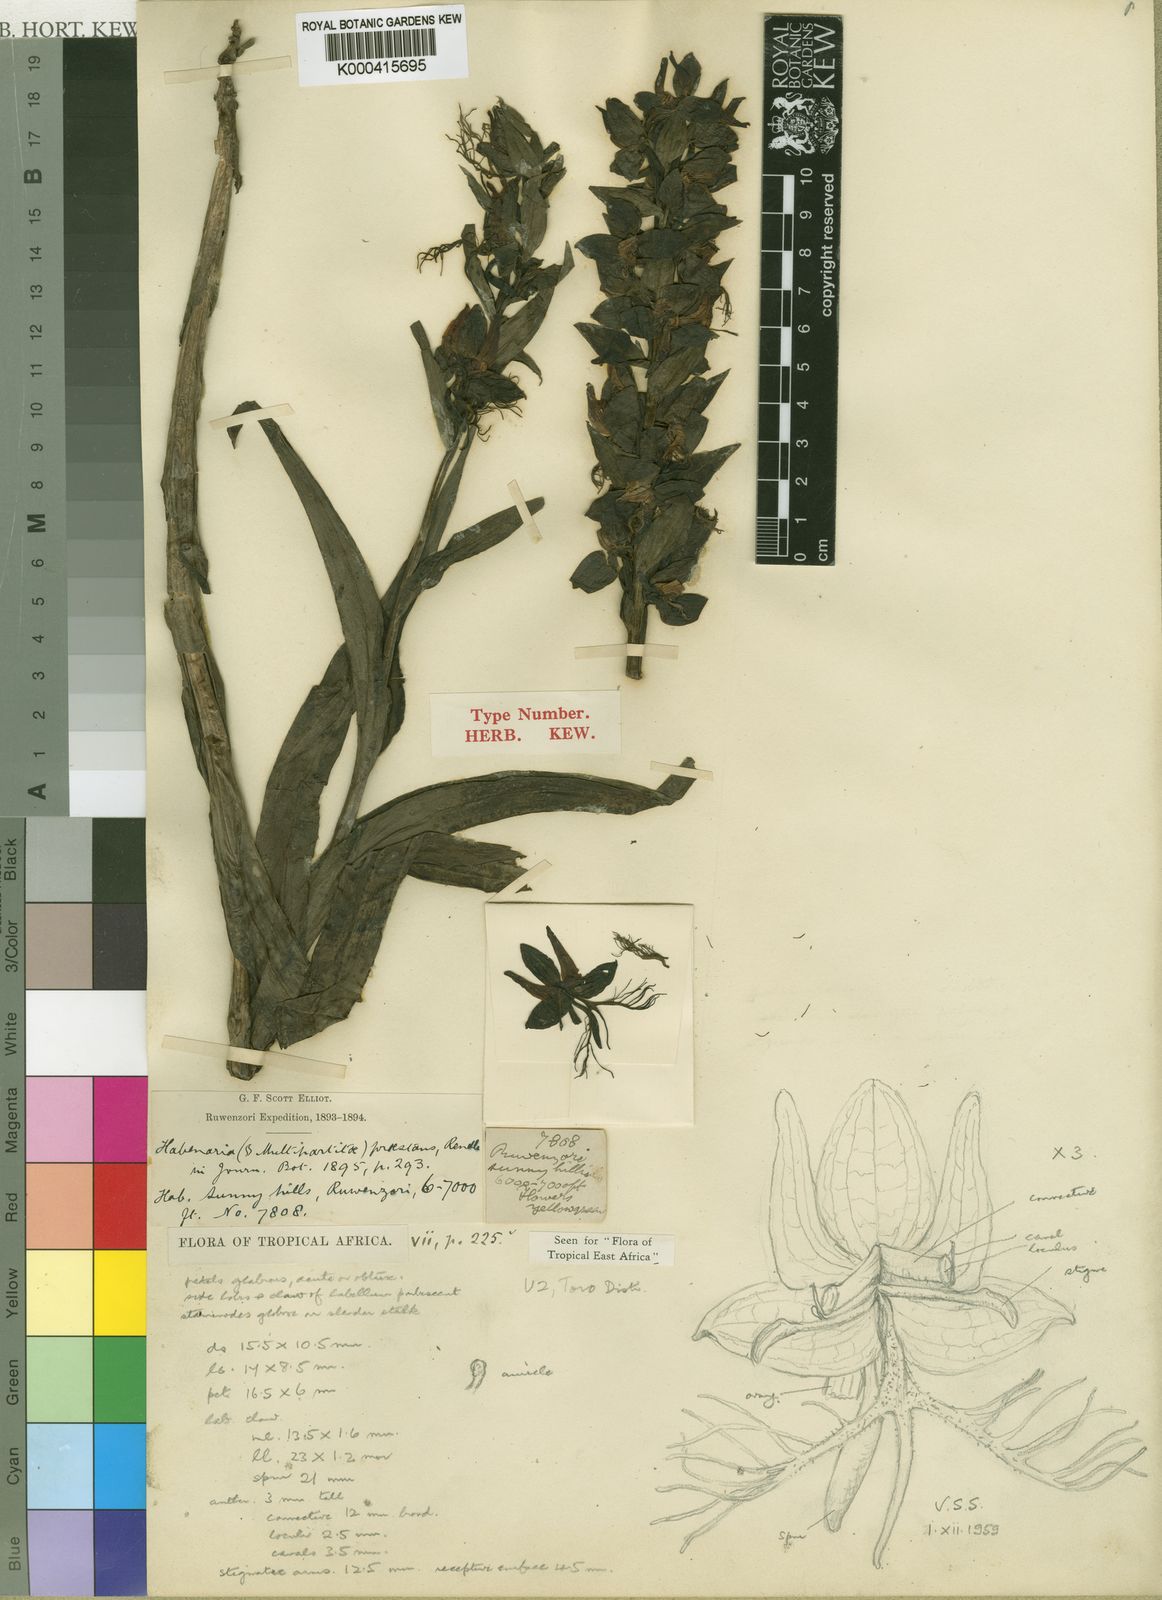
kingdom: Plantae
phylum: Tracheophyta
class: Liliopsida
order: Asparagales
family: Orchidaceae
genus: Habenaria
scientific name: Habenaria praestans
